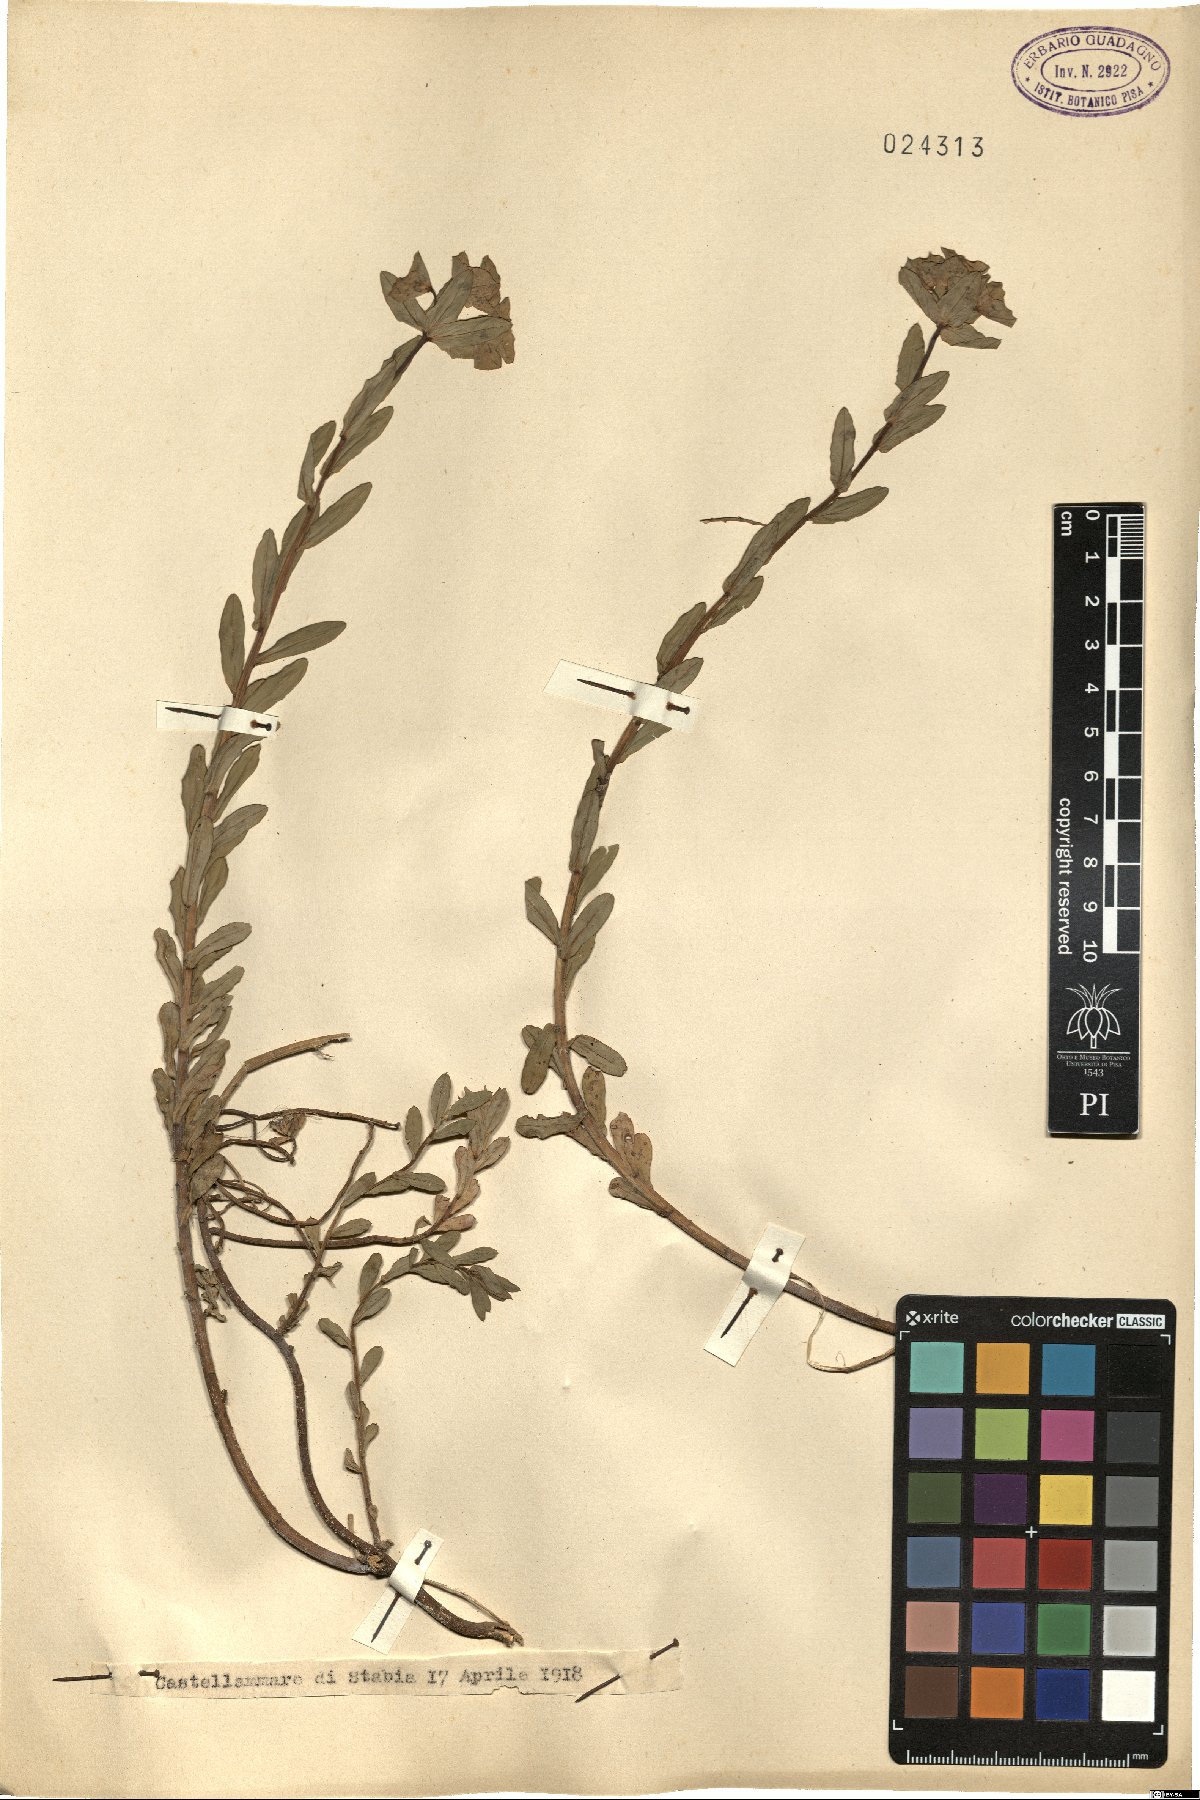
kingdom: Plantae
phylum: Tracheophyta
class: Magnoliopsida
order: Malpighiales
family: Euphorbiaceae
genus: Euphorbia
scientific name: Euphorbia
